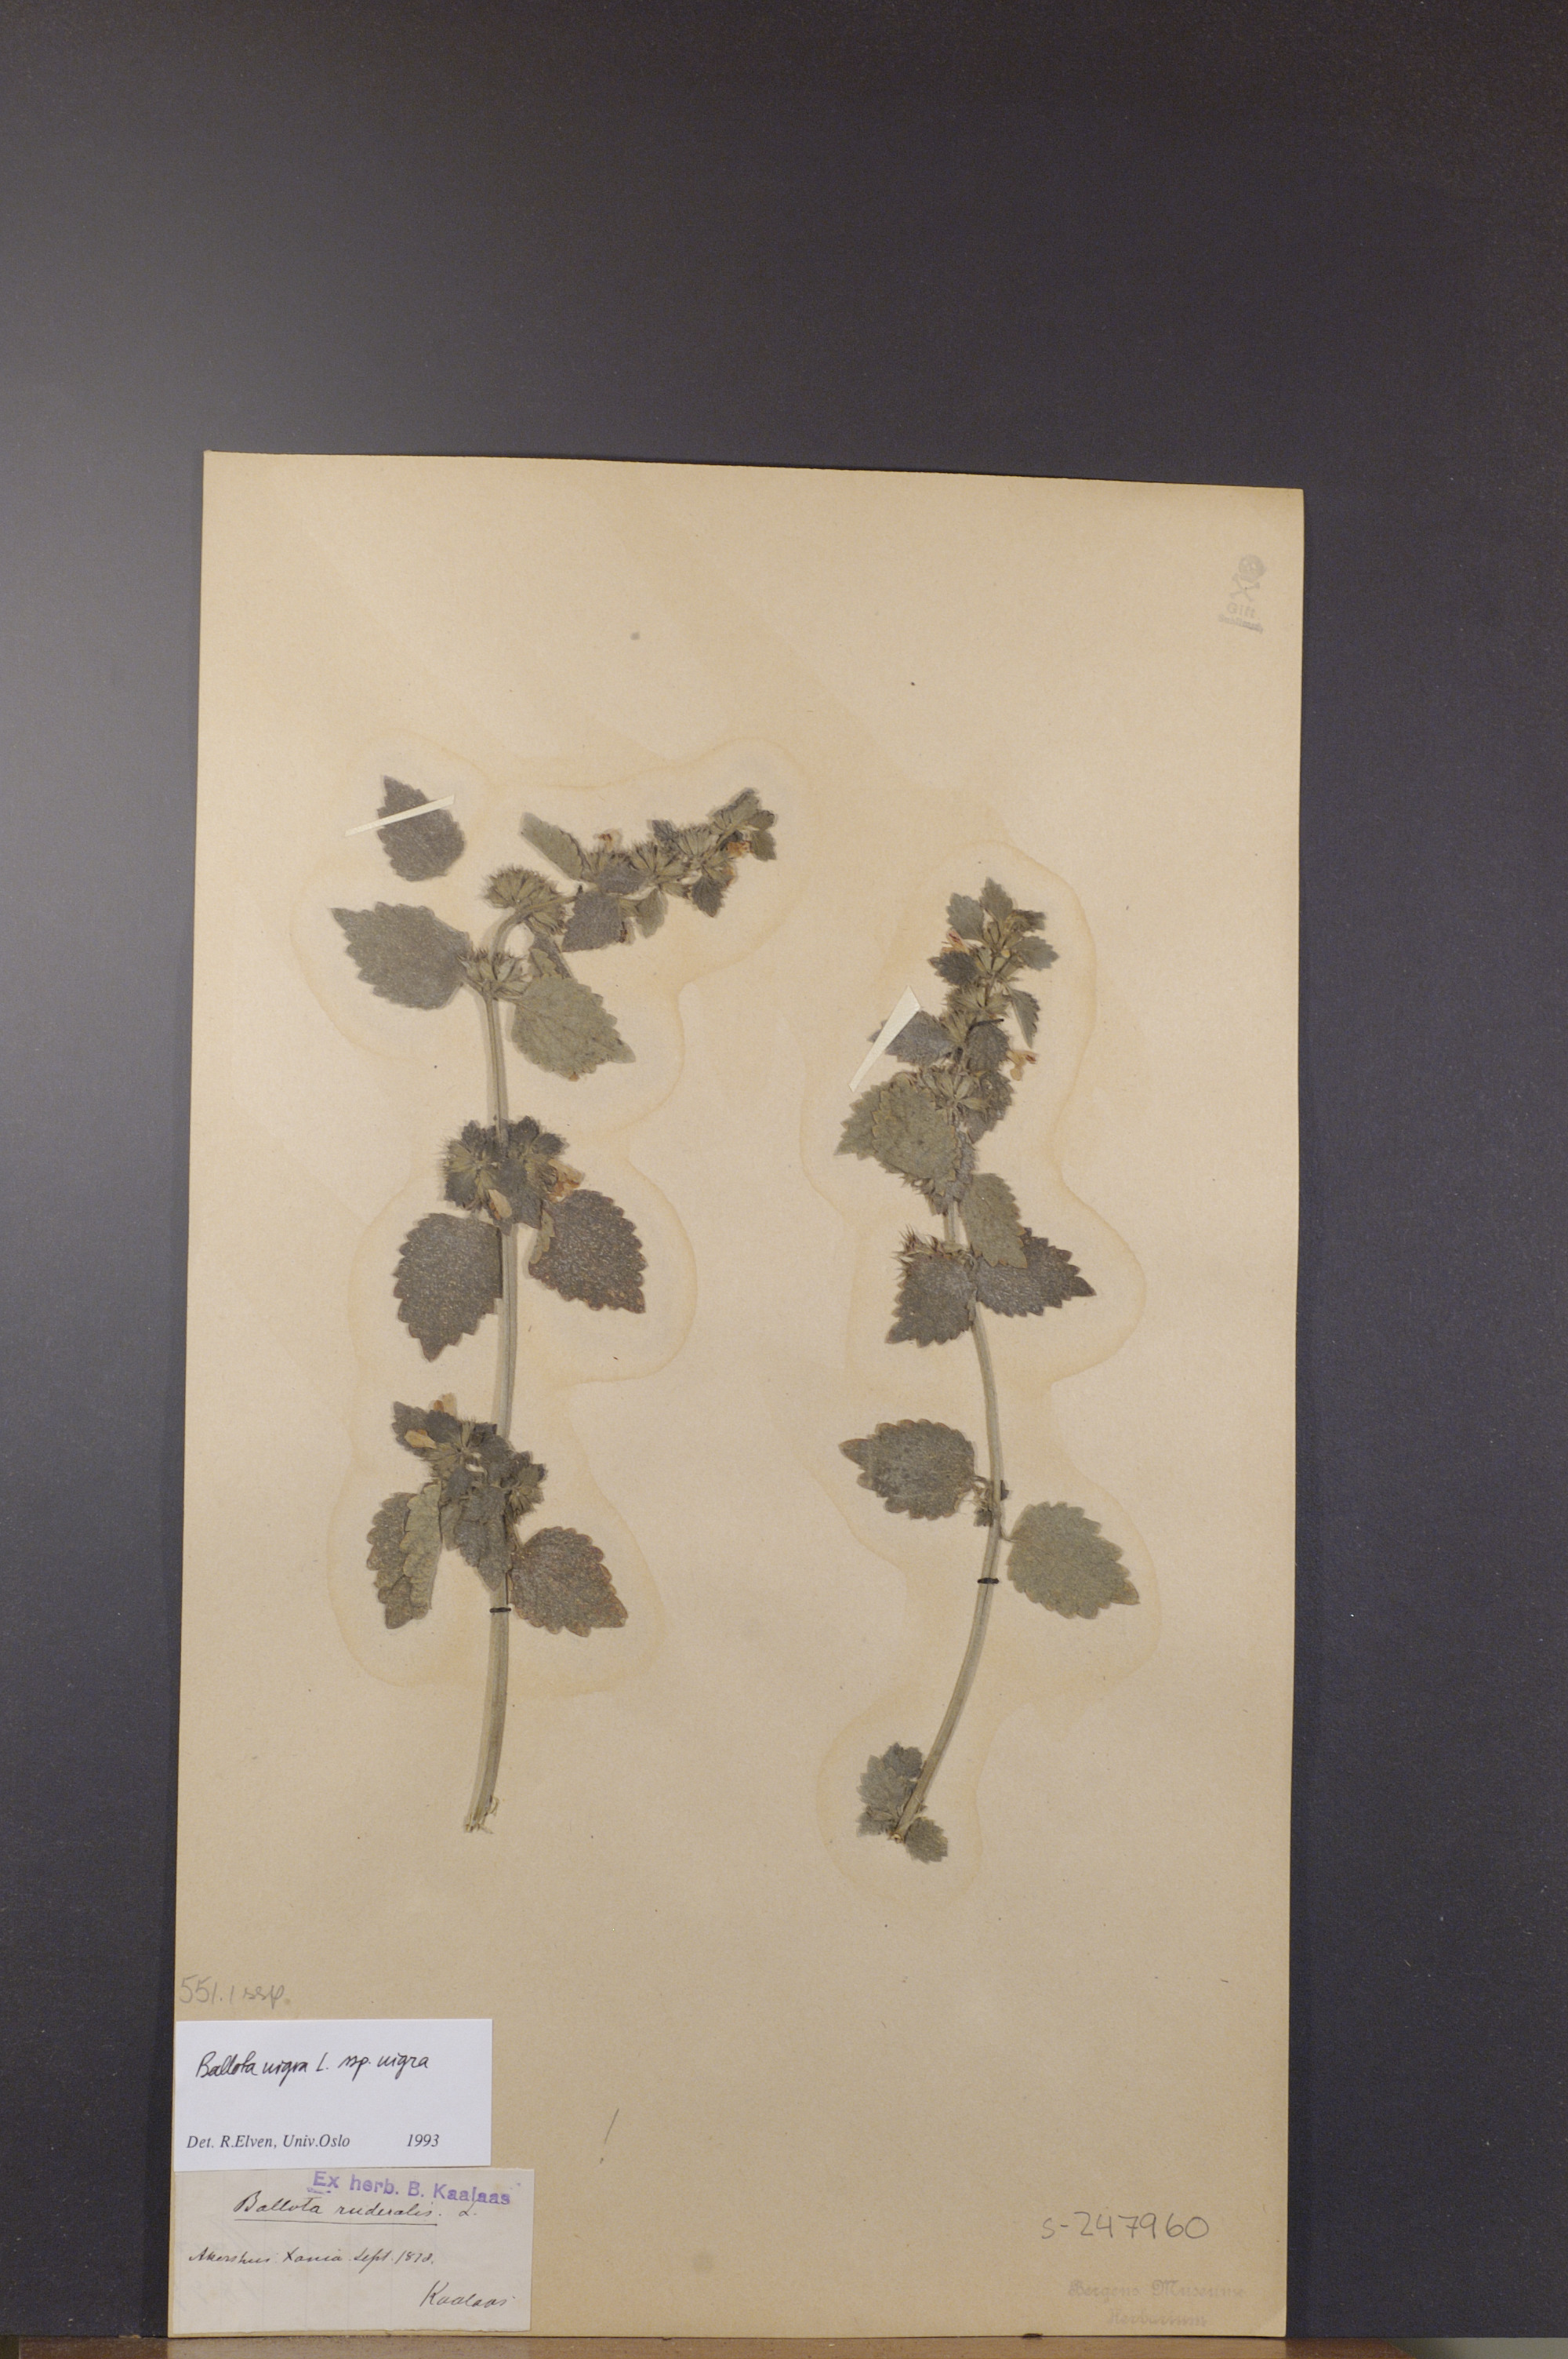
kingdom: Plantae
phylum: Tracheophyta
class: Magnoliopsida
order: Lamiales
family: Lamiaceae
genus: Ballota
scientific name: Ballota nigra
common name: Black horehound
